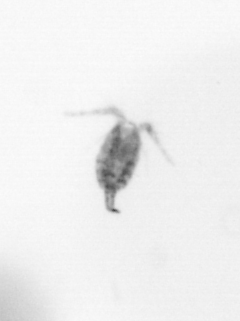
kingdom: Animalia
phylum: Arthropoda
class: Copepoda
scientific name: Copepoda
